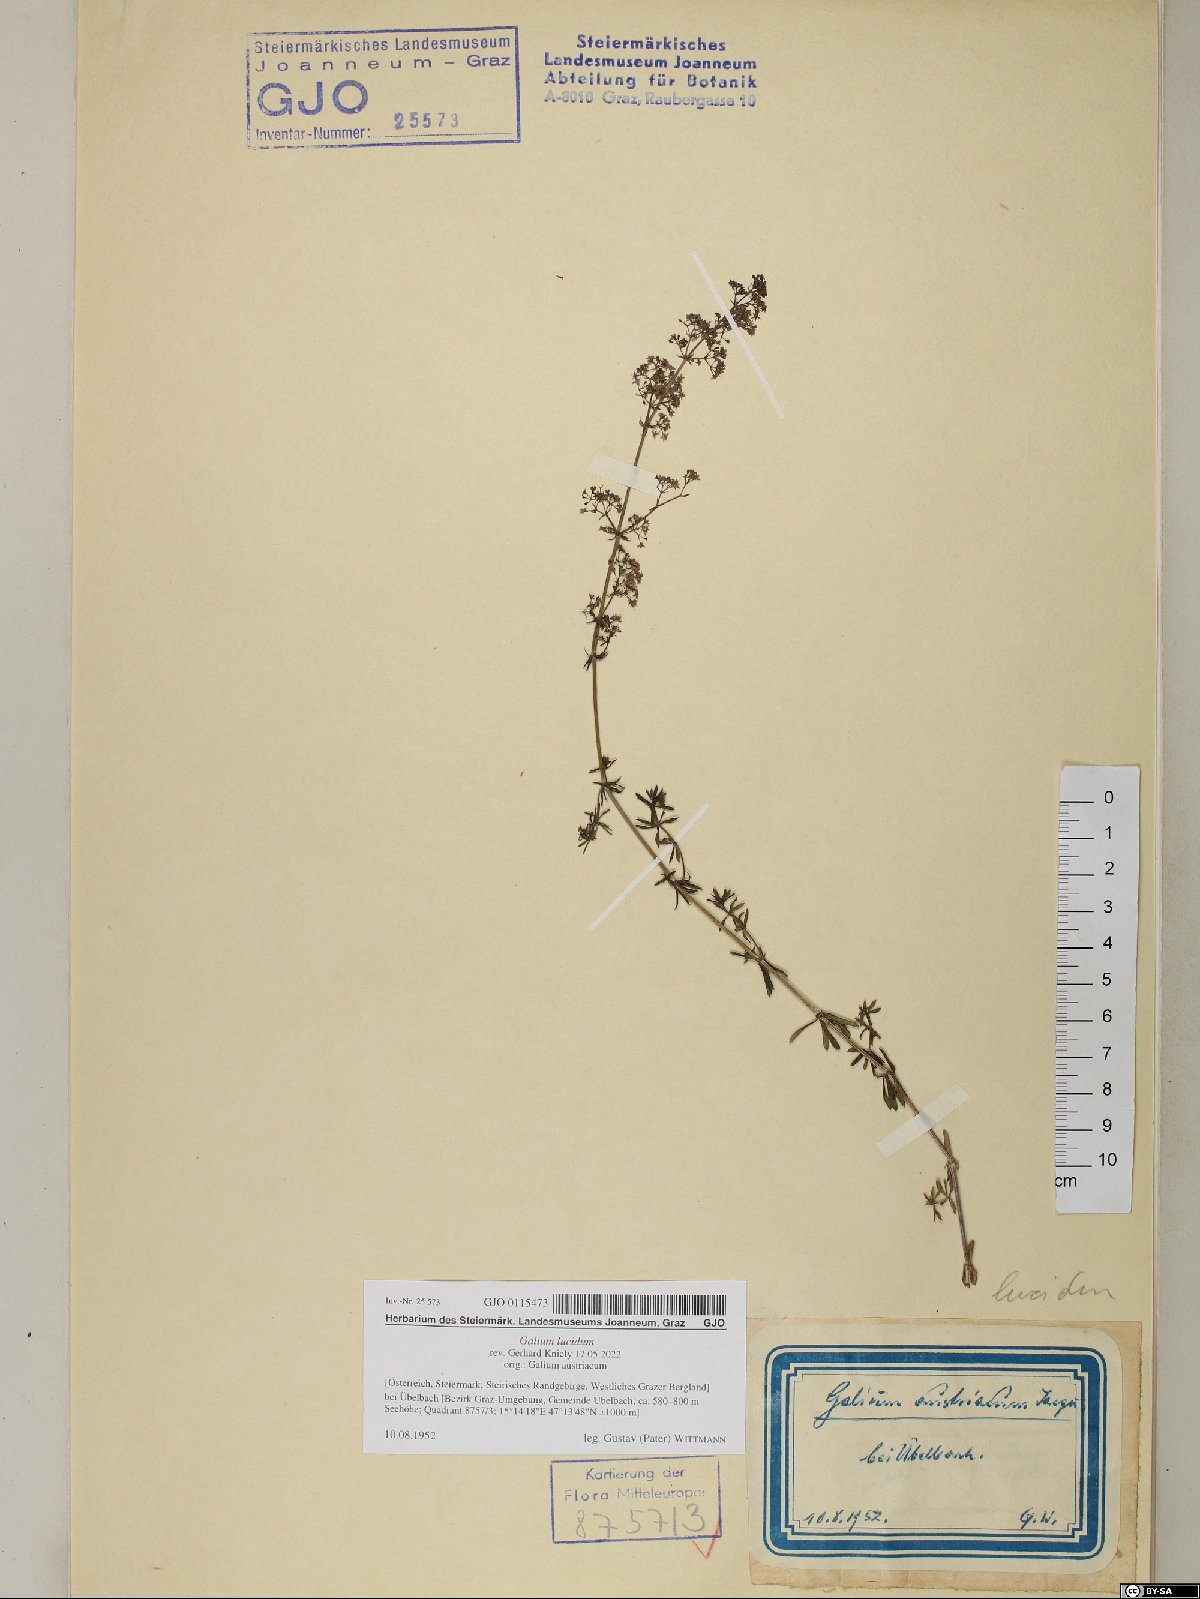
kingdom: Plantae
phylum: Tracheophyta
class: Magnoliopsida
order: Gentianales
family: Rubiaceae
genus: Galium
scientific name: Galium lucidum
